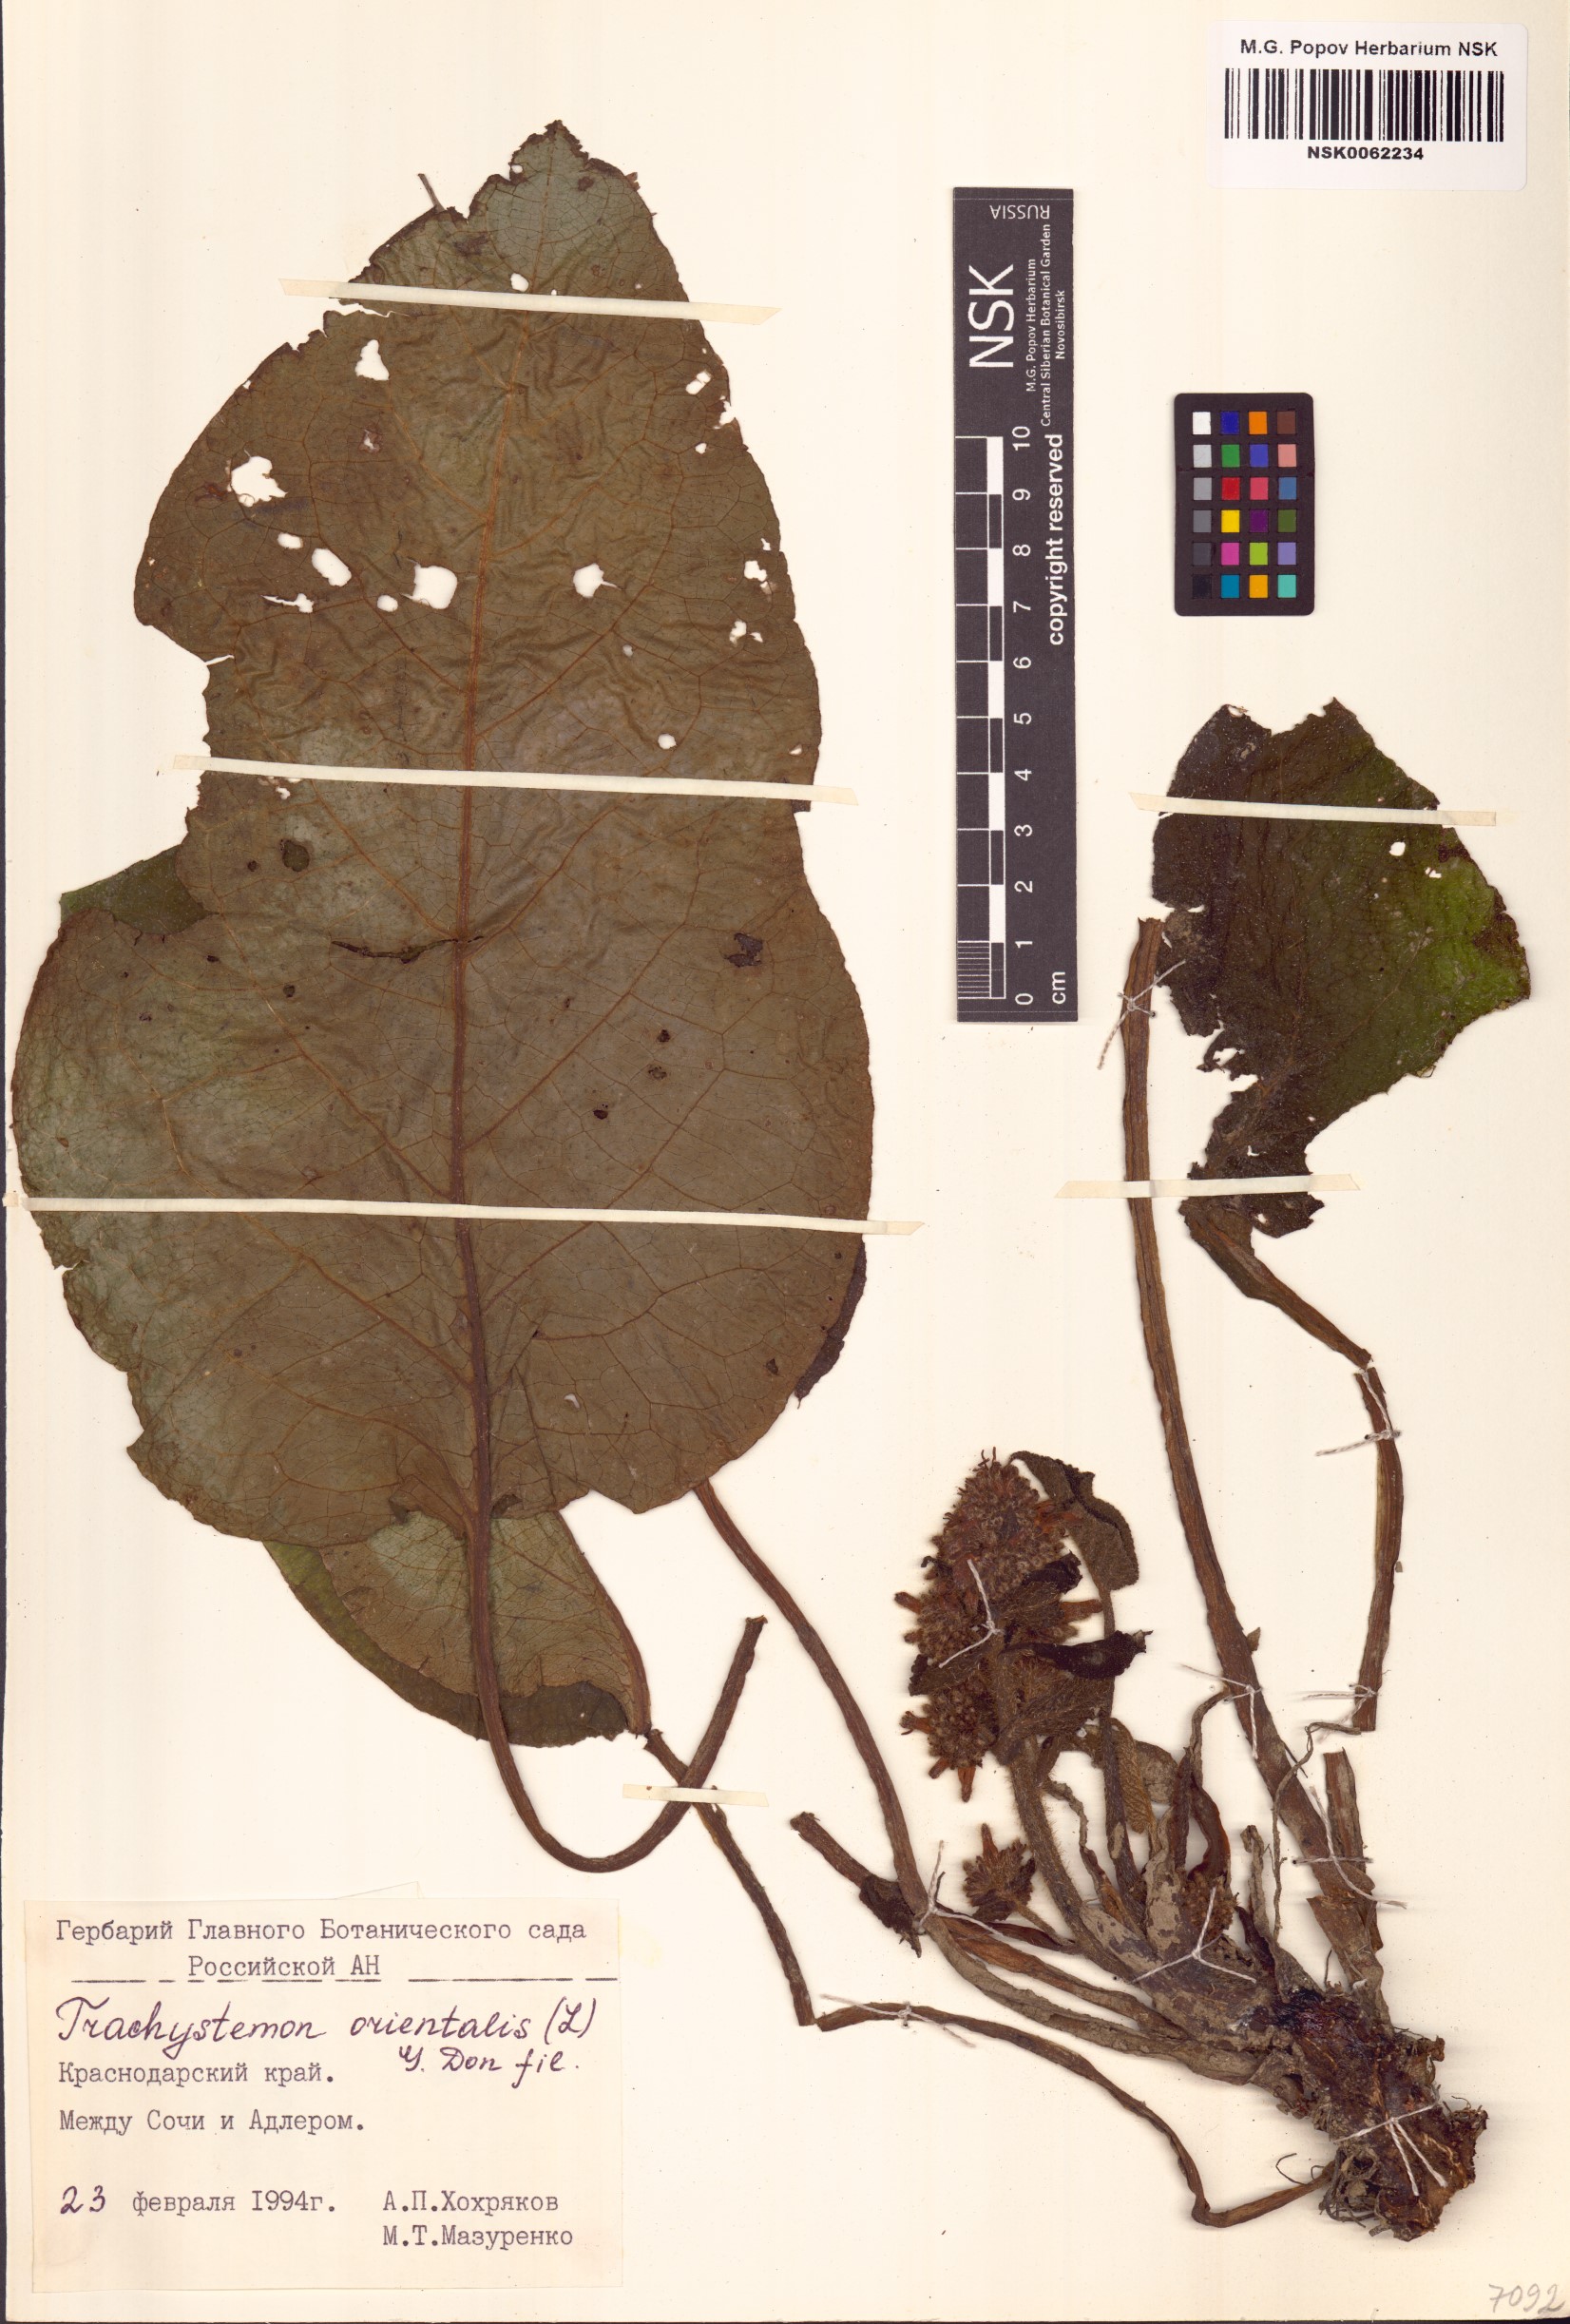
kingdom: Plantae
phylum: Tracheophyta
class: Magnoliopsida
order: Boraginales
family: Boraginaceae
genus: Trachystemon
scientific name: Trachystemon orientale
